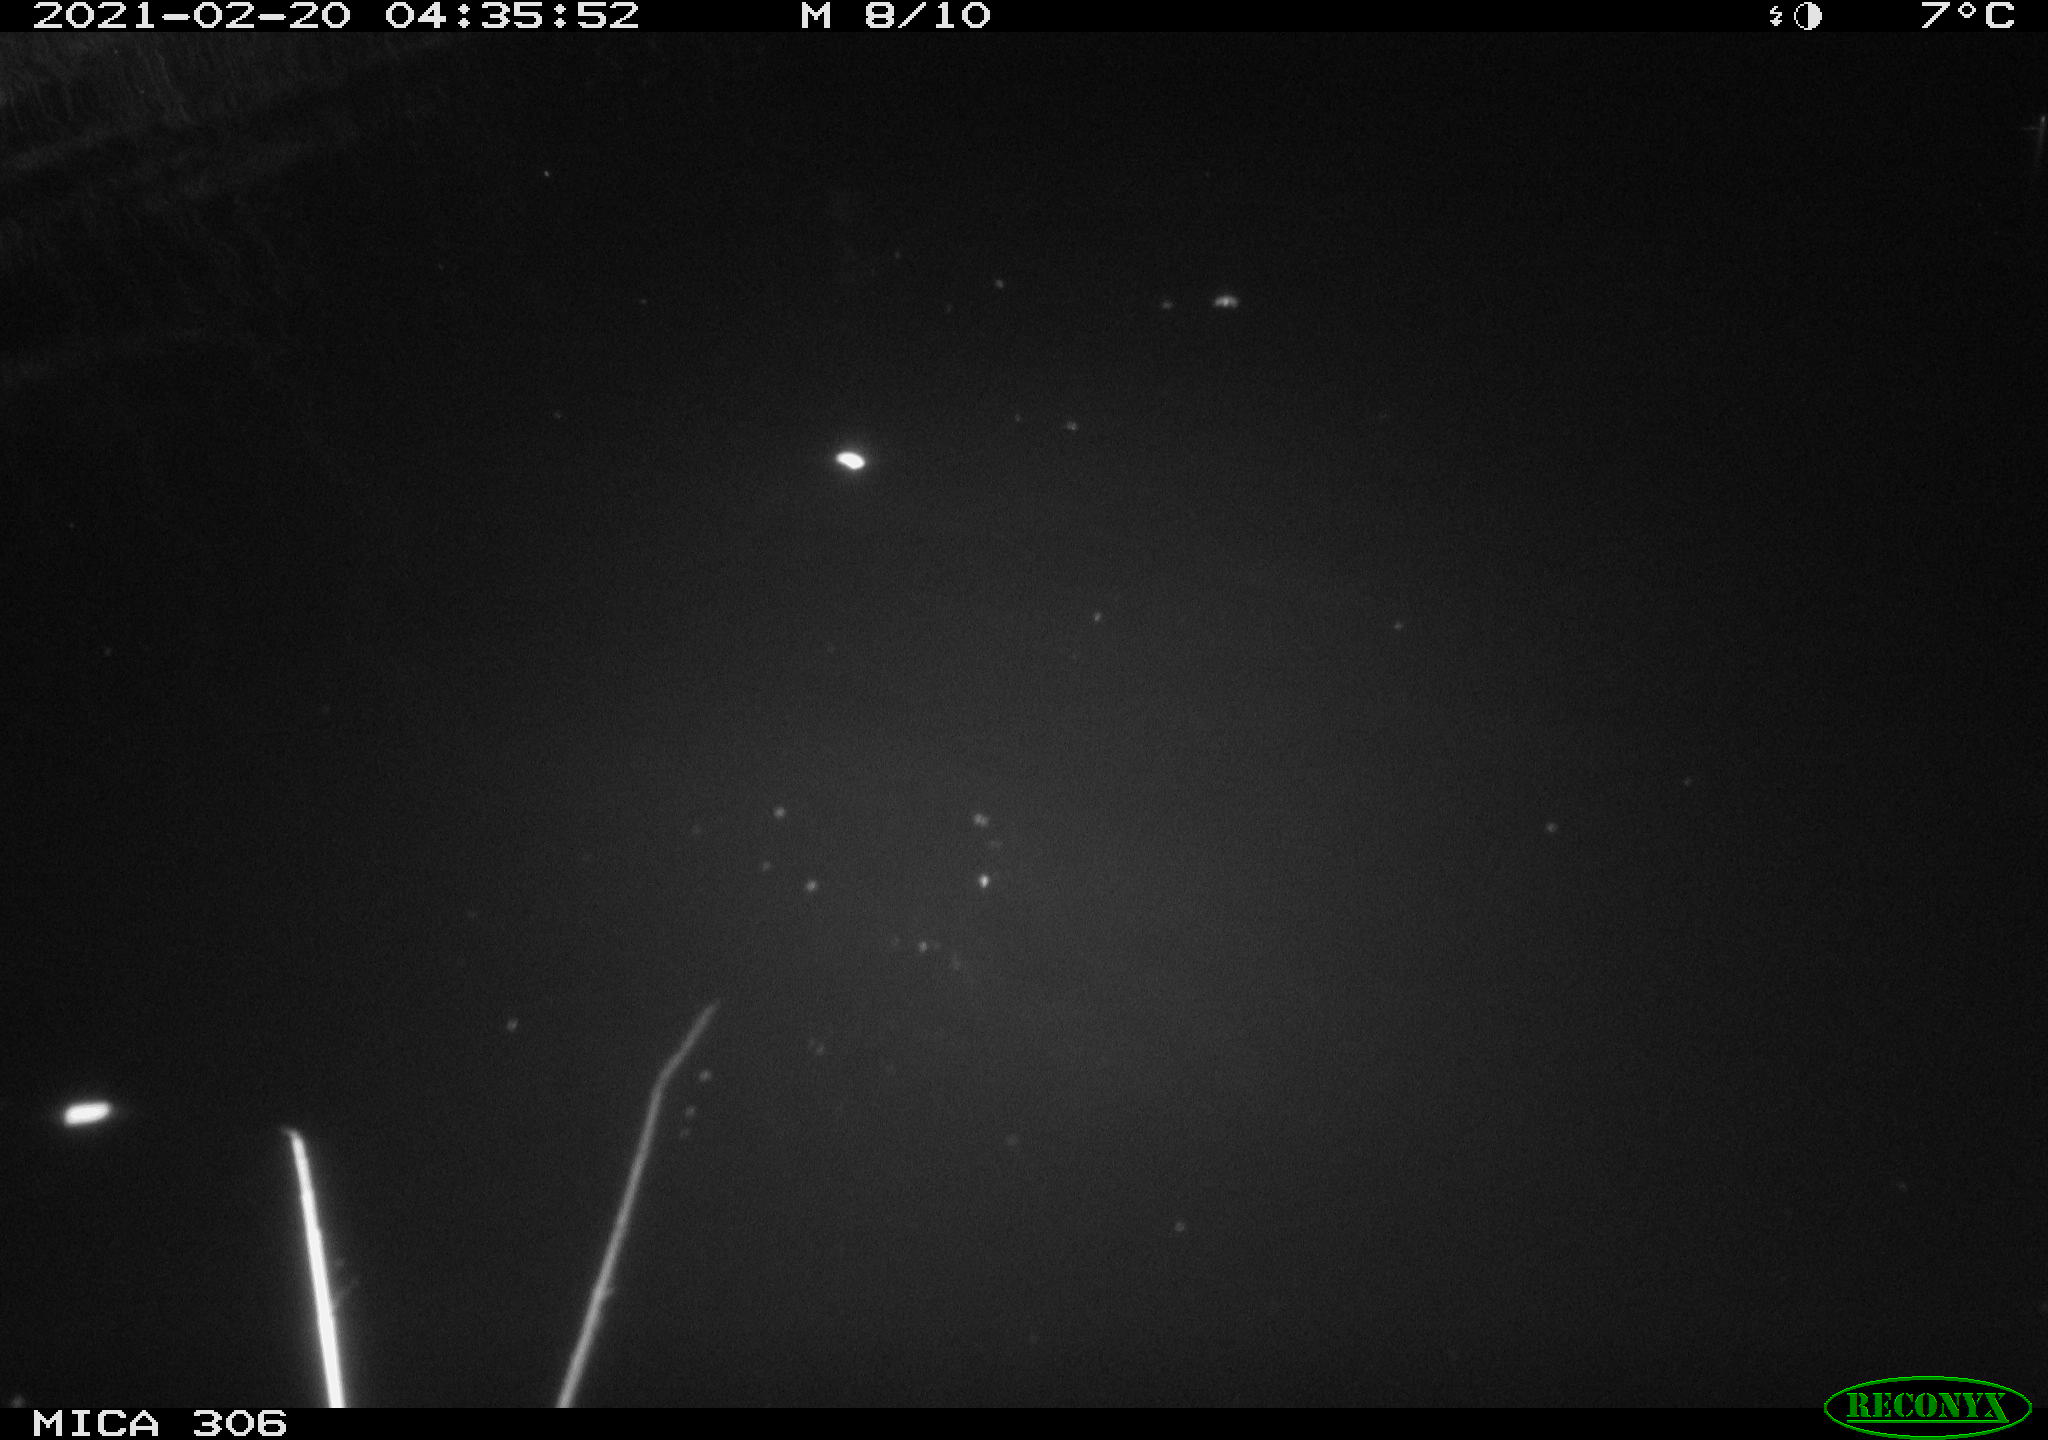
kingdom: Animalia
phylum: Chordata
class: Mammalia
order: Rodentia
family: Cricetidae
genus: Ondatra
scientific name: Ondatra zibethicus
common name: Muskrat
